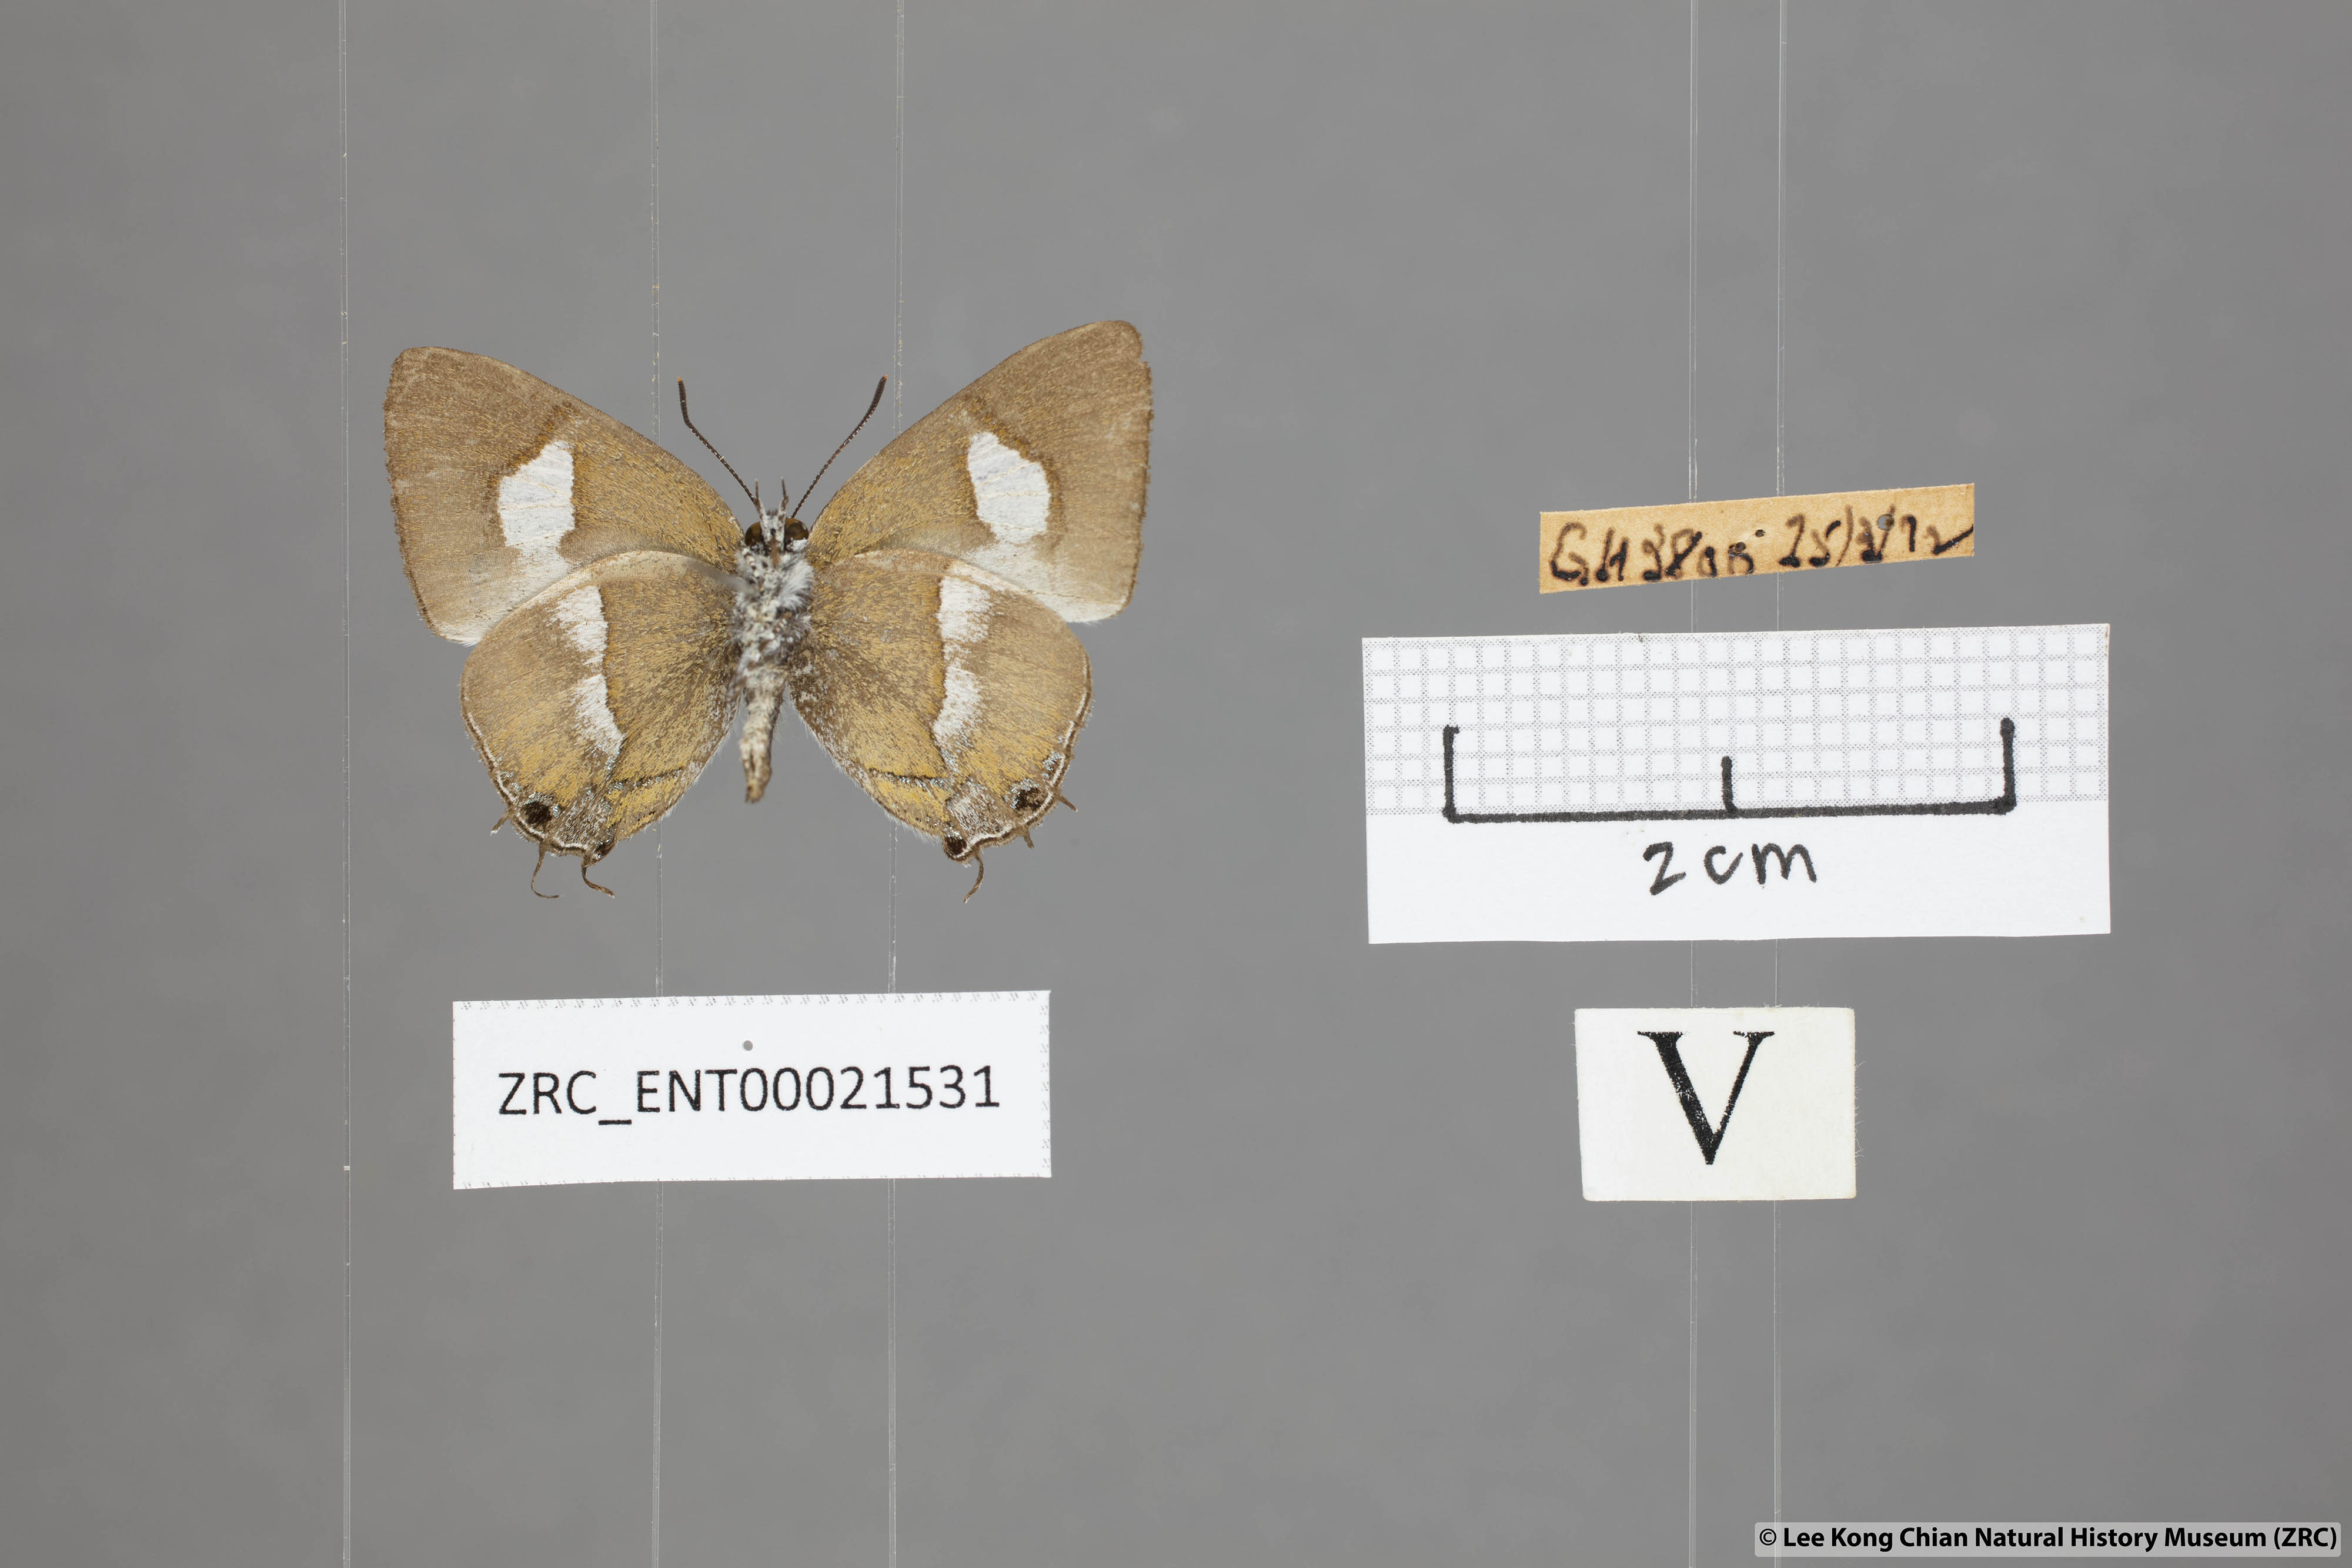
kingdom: Animalia
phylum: Arthropoda
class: Insecta
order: Lepidoptera
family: Lycaenidae
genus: Horaga
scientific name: Horaga syrinx
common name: Ambon onyx
